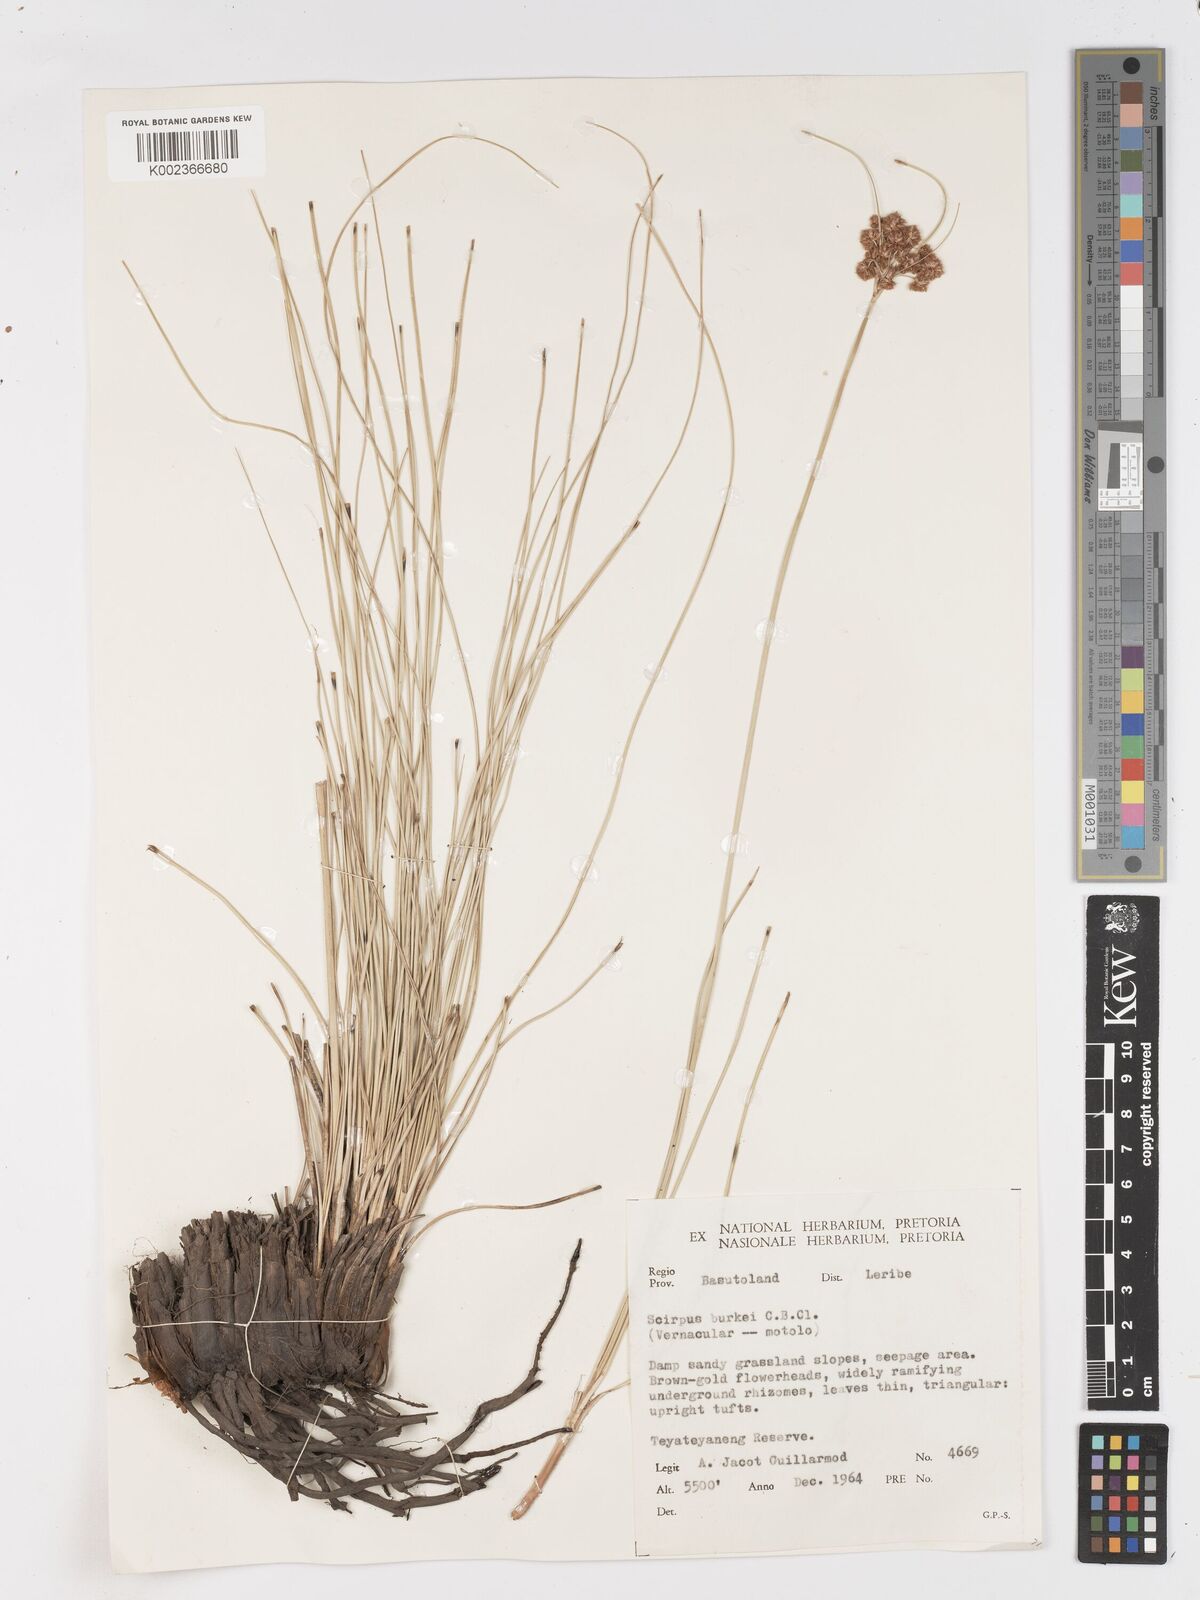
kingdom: Plantae
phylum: Tracheophyta
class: Liliopsida
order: Poales
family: Cyperaceae
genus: Scirpoides
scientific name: Scirpoides burkei
